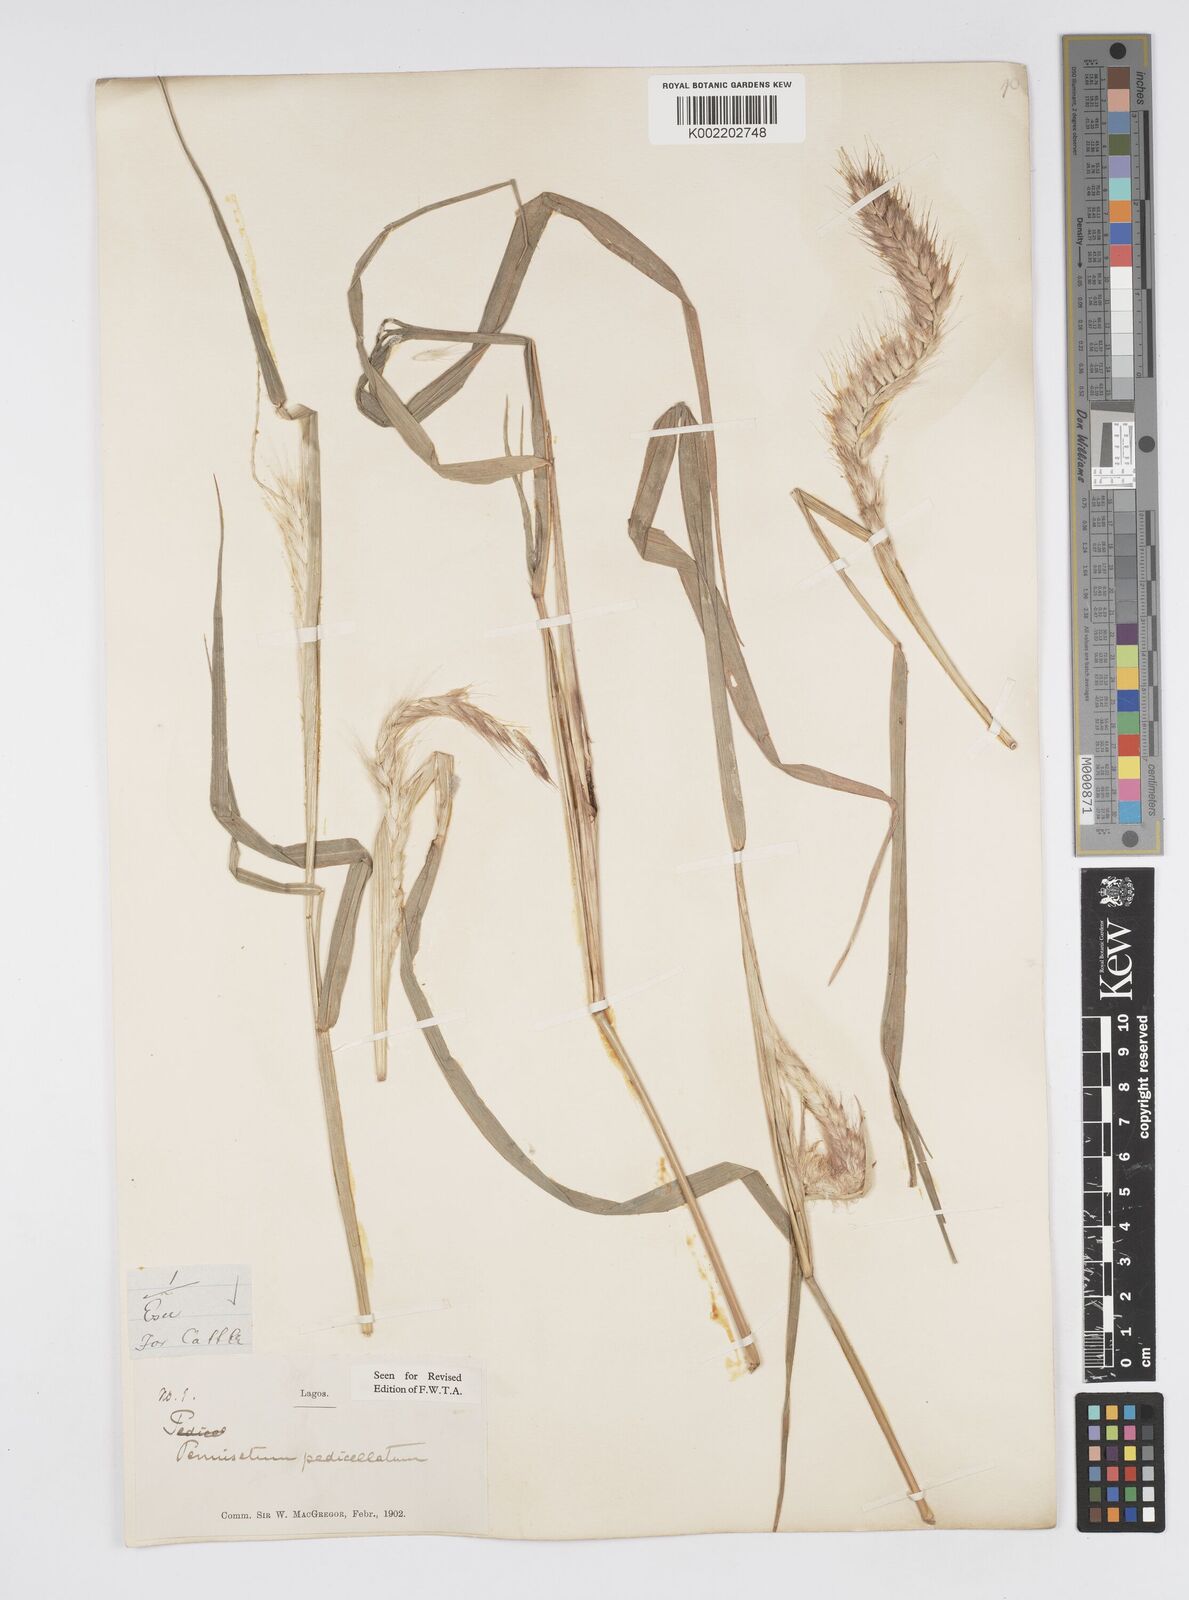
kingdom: Plantae
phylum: Tracheophyta
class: Liliopsida
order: Poales
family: Poaceae
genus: Cenchrus
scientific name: Cenchrus pedicellatus
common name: Hairy fountain grass
